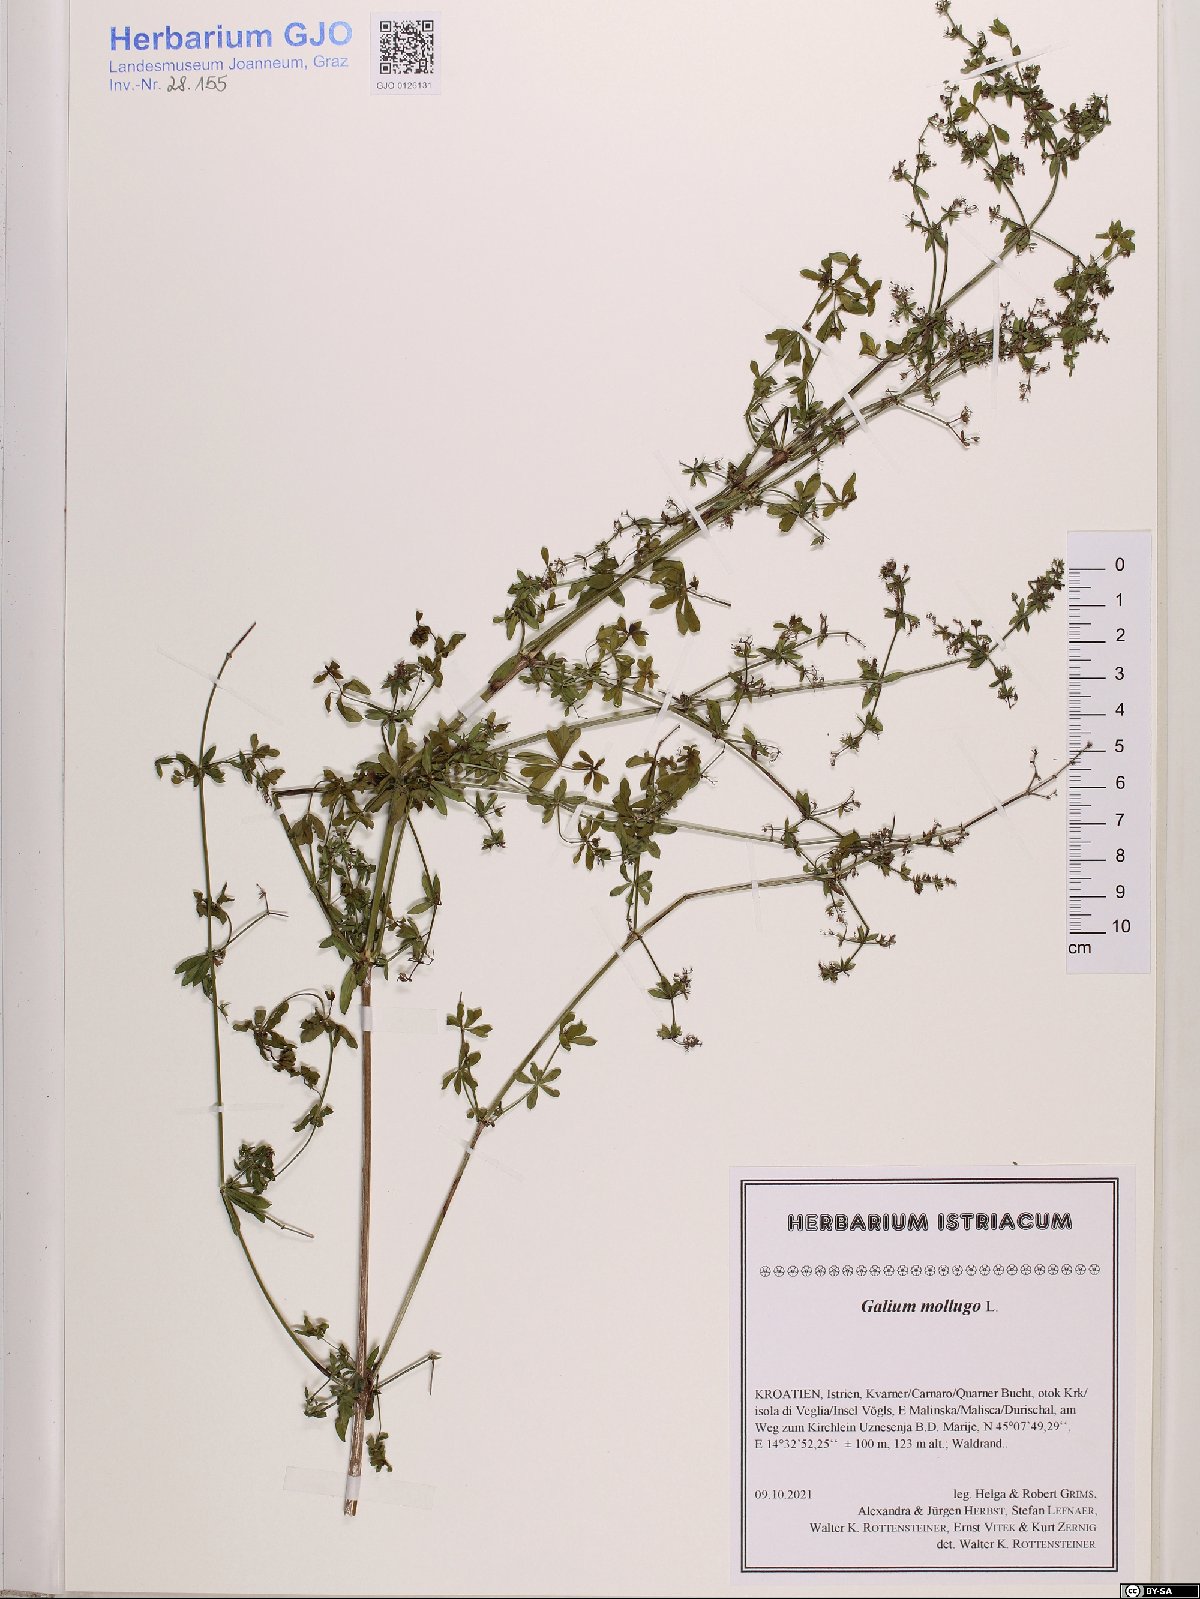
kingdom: Plantae
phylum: Tracheophyta
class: Magnoliopsida
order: Gentianales
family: Rubiaceae
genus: Galium
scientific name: Galium mollugo
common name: Hedge bedstraw
